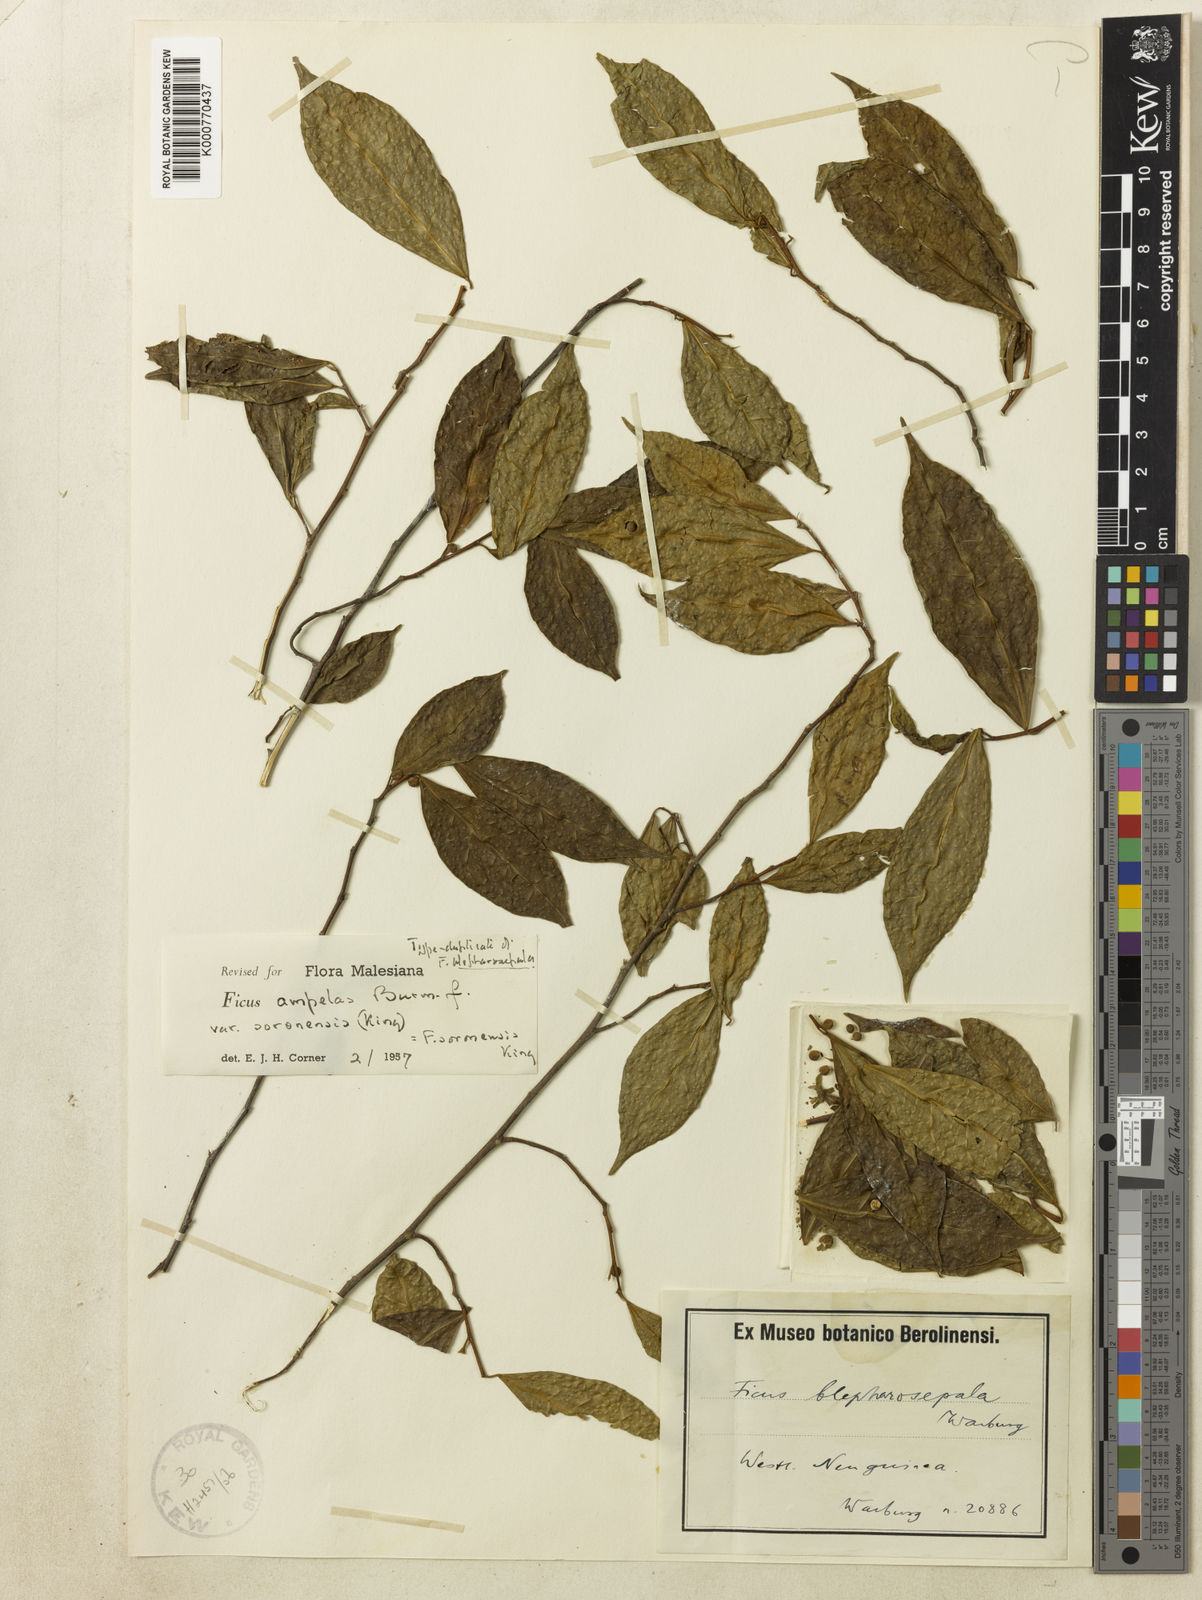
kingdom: Plantae
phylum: Tracheophyta
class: Magnoliopsida
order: Rosales
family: Moraceae
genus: Ficus
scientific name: Ficus
